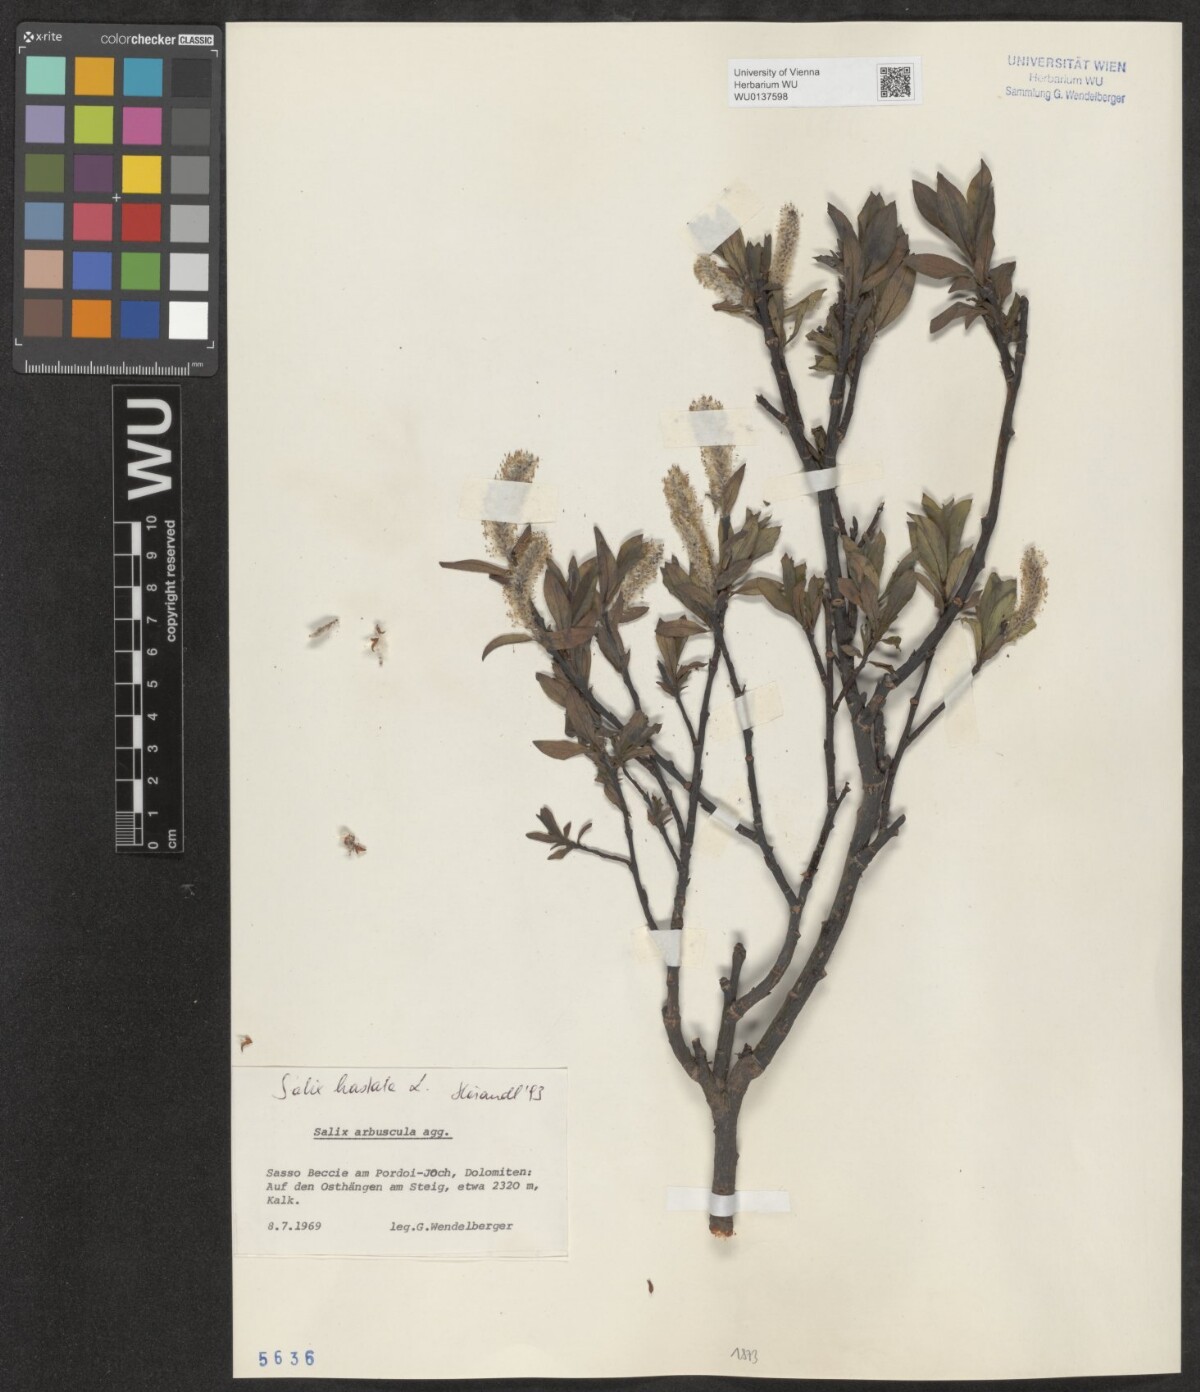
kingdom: Plantae
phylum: Tracheophyta
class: Magnoliopsida
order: Malpighiales
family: Salicaceae
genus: Salix
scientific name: Salix hastata
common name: Halberd willow
